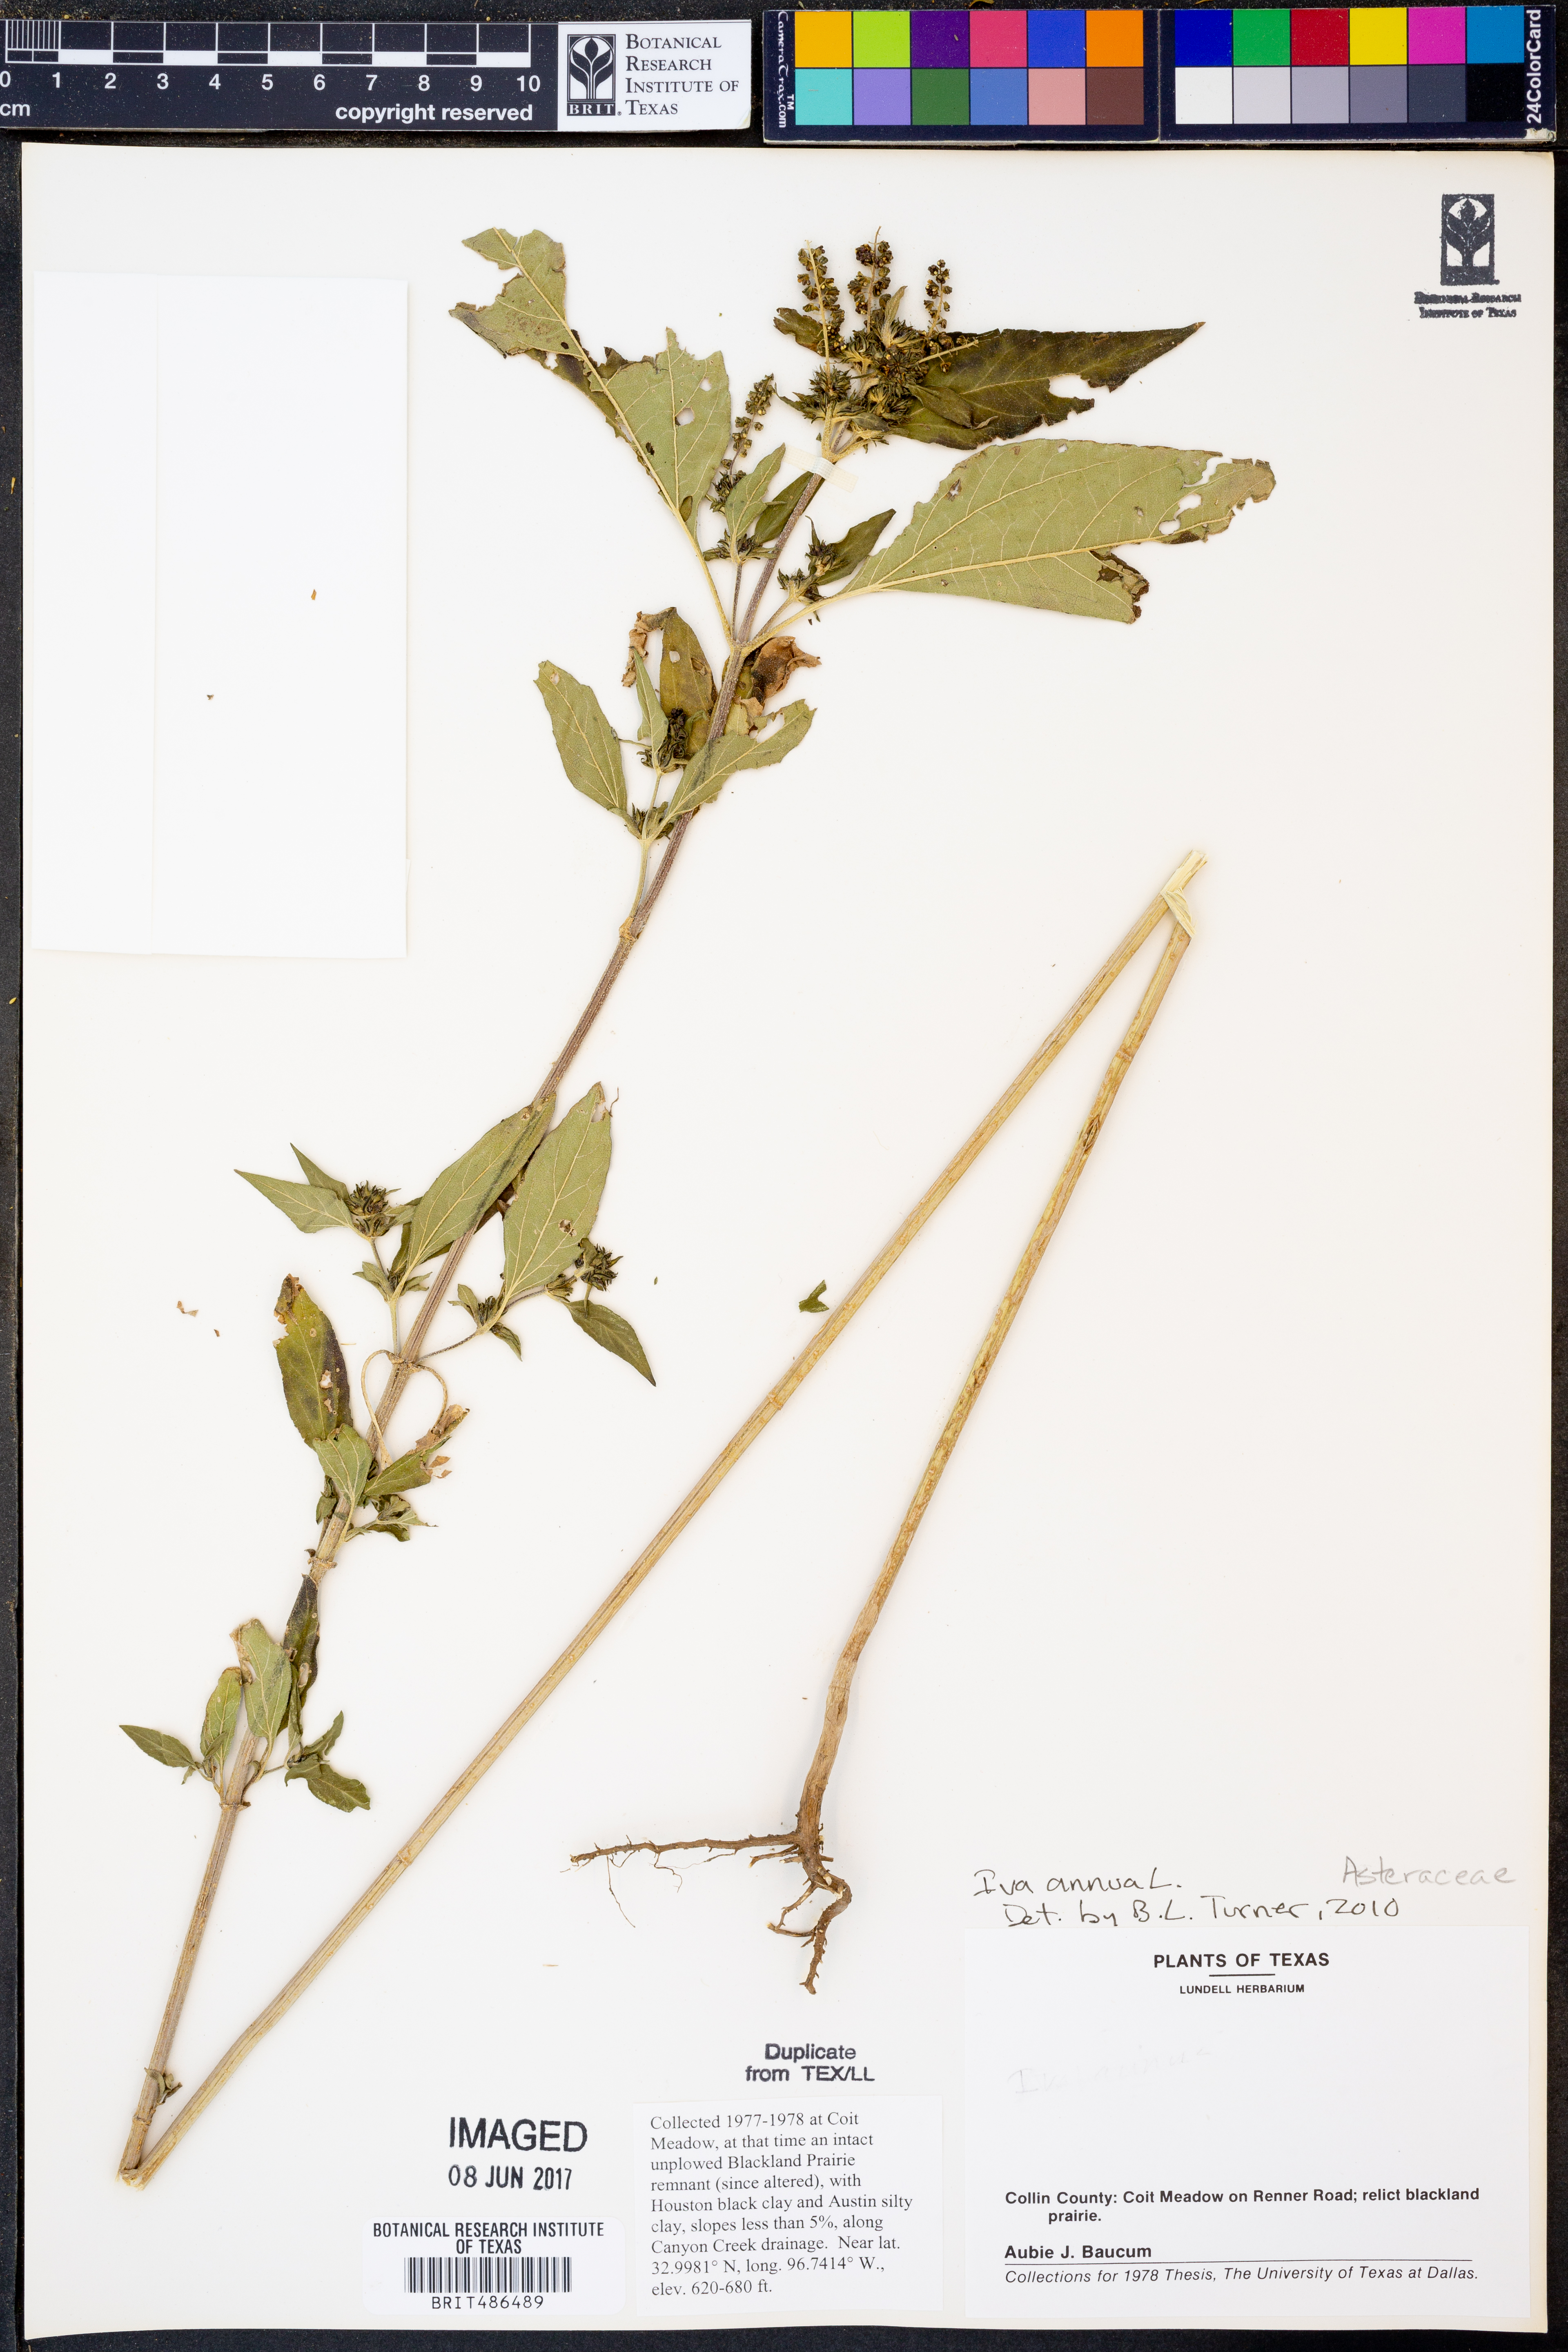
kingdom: Plantae
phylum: Tracheophyta
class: Magnoliopsida
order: Asterales
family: Asteraceae
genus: Iva
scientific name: Iva annua
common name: Marsh-elder
